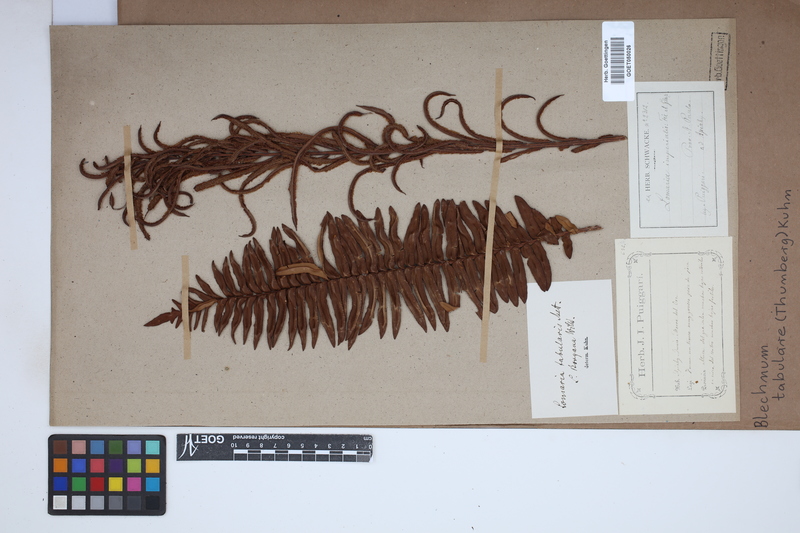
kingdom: Plantae
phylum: Tracheophyta
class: Polypodiopsida
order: Polypodiales
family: Blechnaceae
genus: Lomariocycas
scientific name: Lomariocycas tabularis
